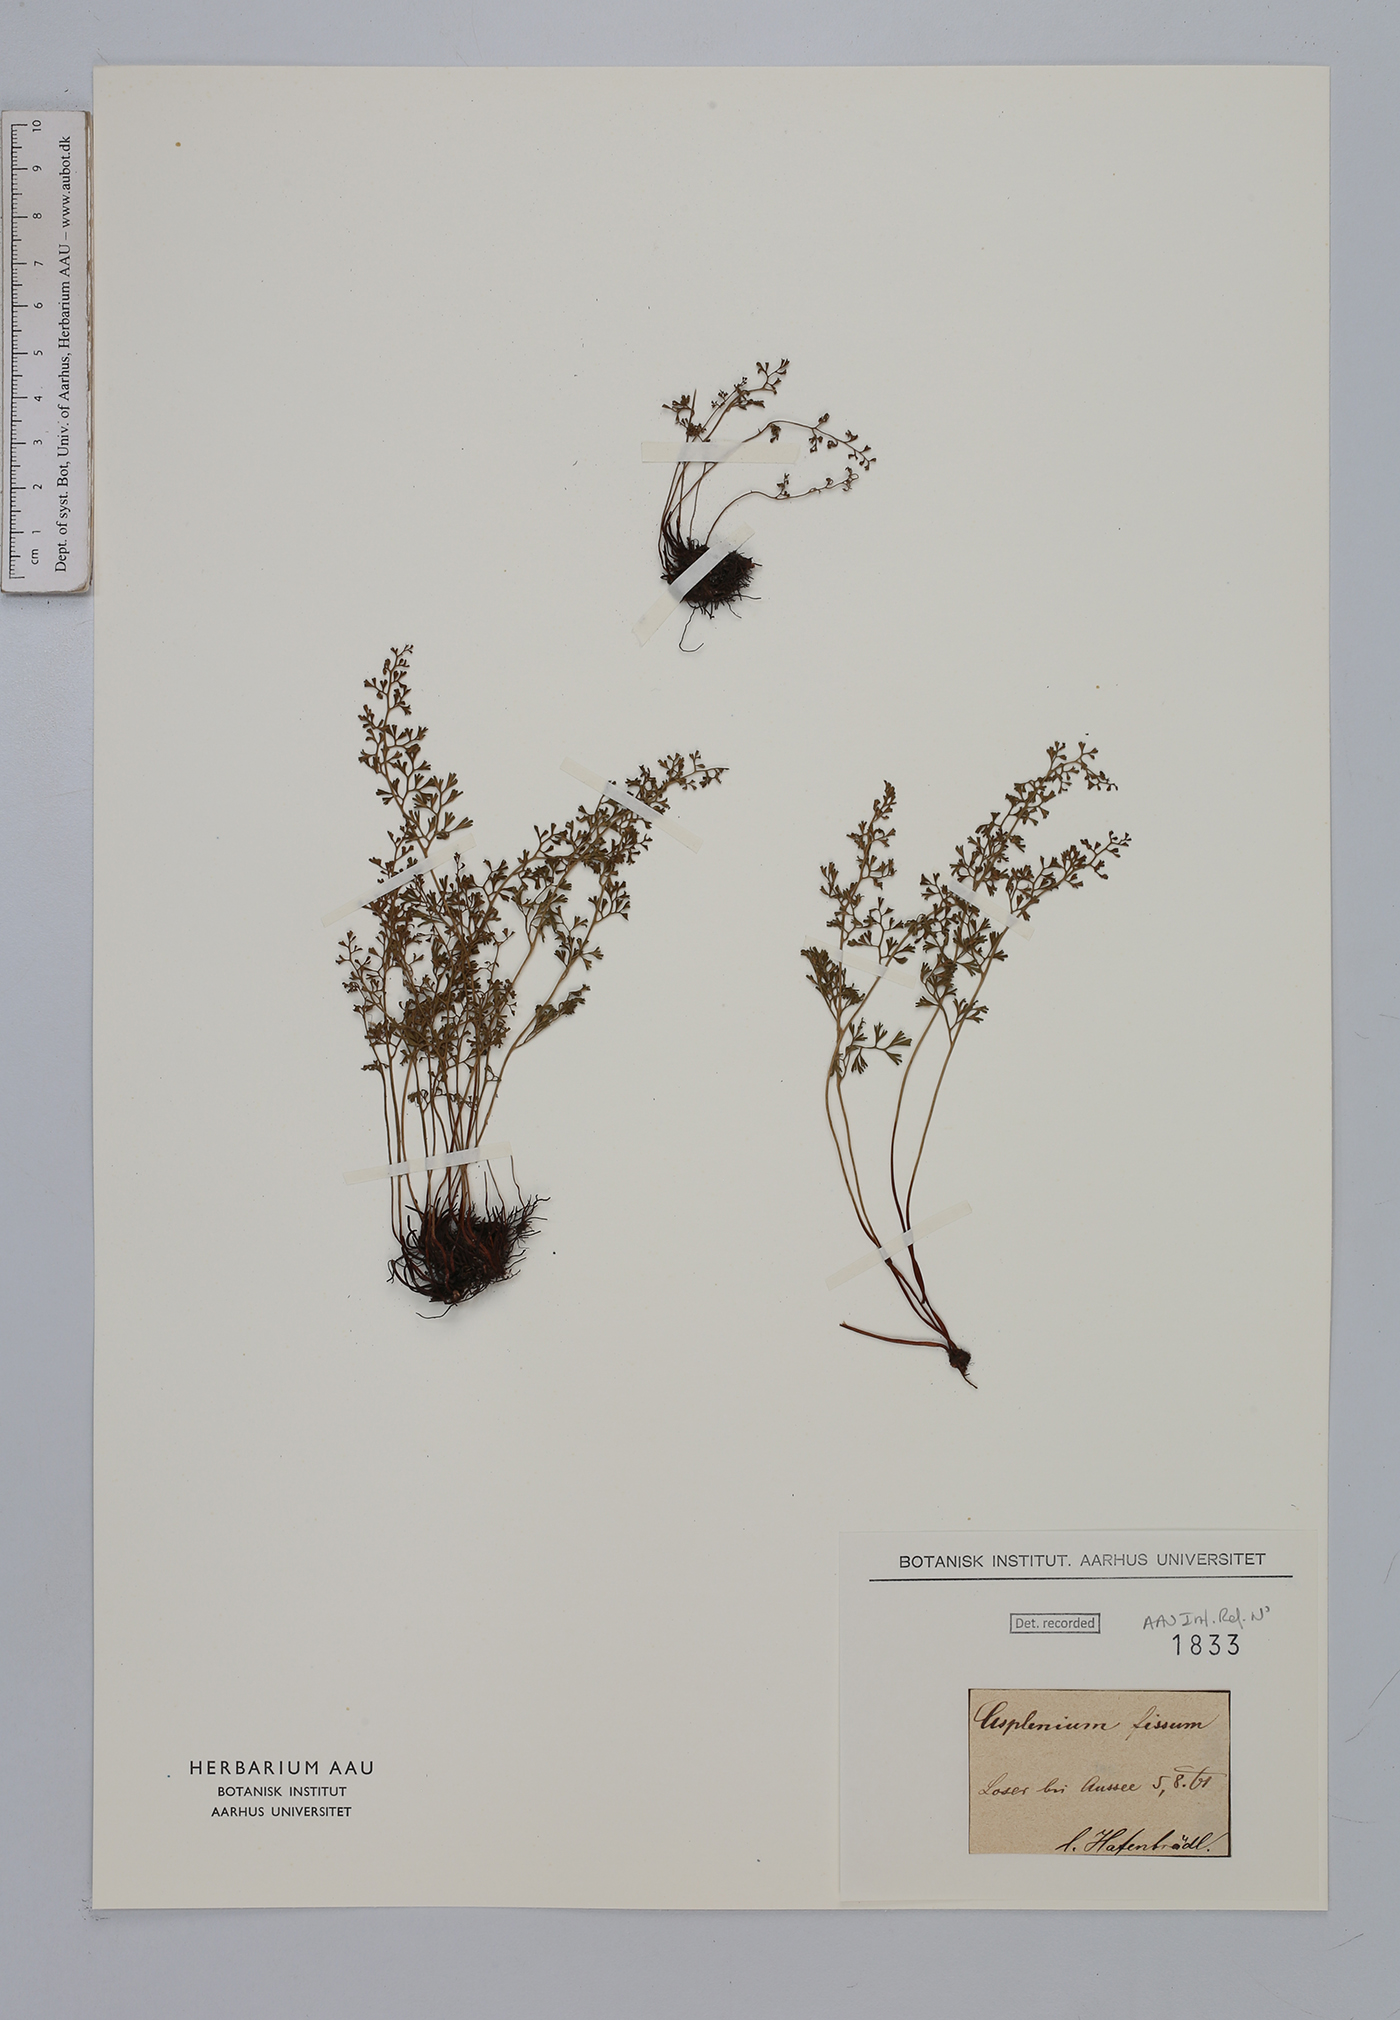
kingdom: Plantae
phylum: Tracheophyta
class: Polypodiopsida
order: Polypodiales
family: Aspleniaceae
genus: Asplenium
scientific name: Asplenium fissum
